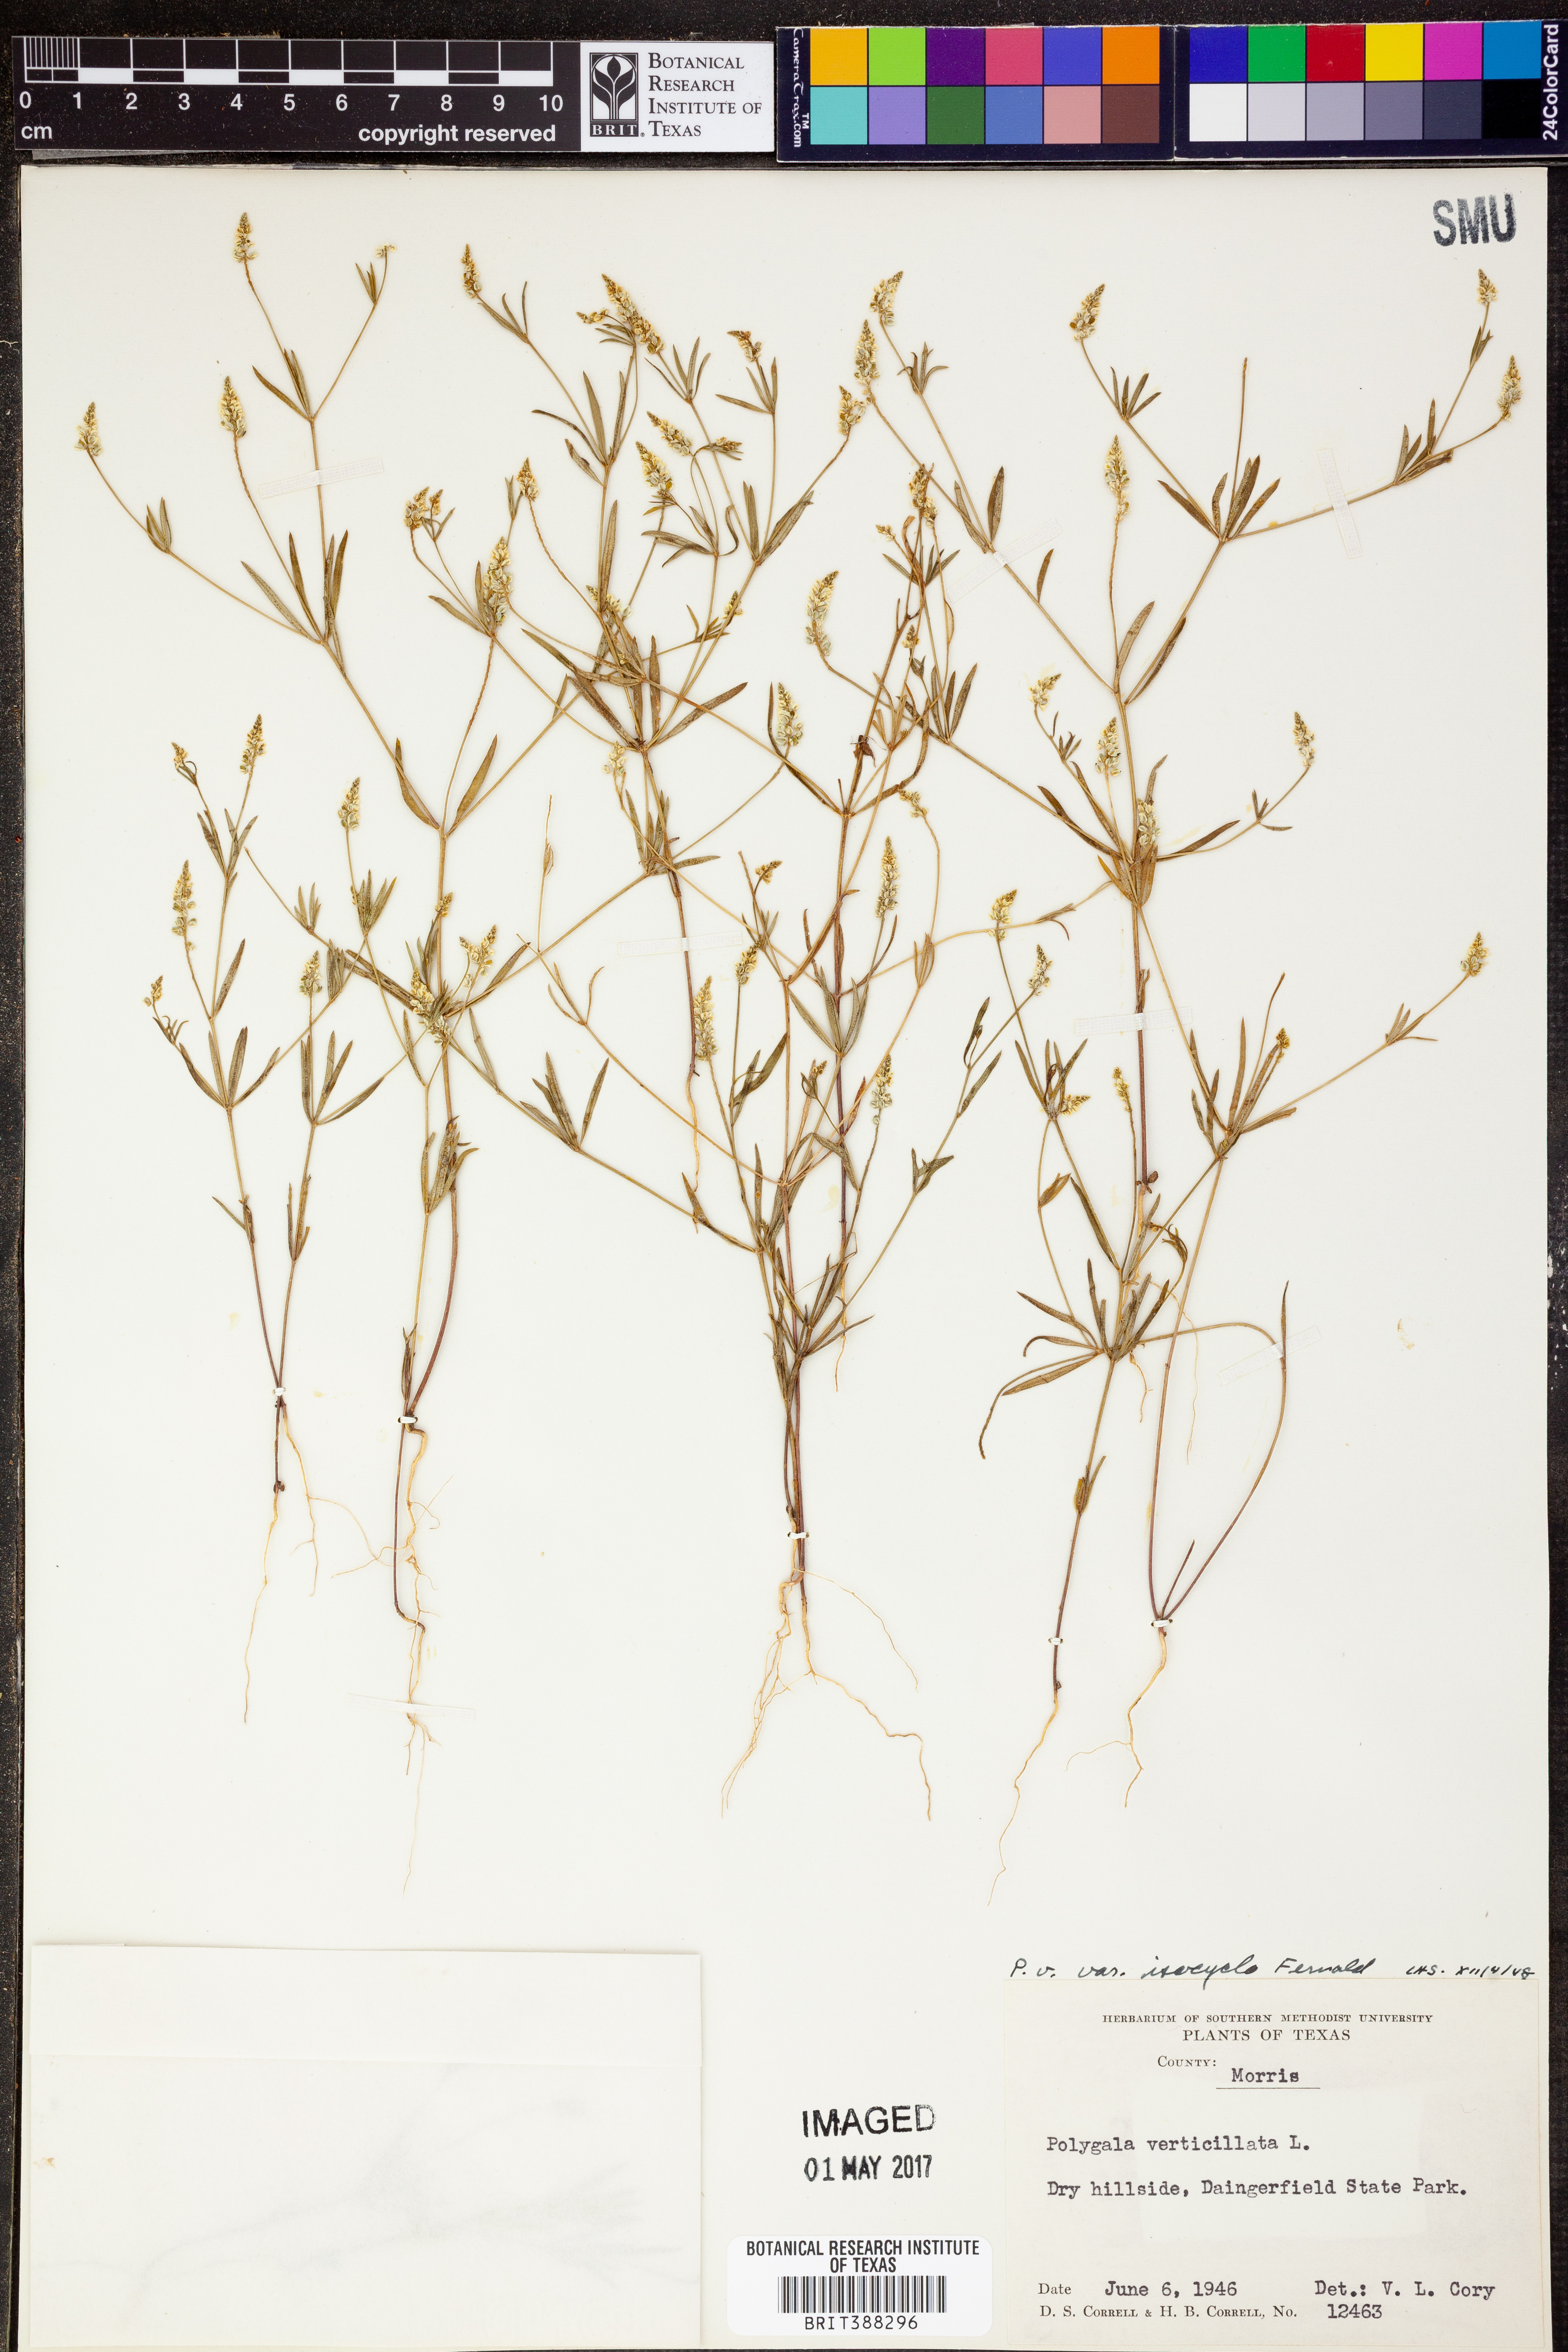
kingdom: Plantae
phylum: Tracheophyta
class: Magnoliopsida
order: Fabales
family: Polygalaceae
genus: Polygala
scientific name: Polygala verticillata
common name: Whorl milkwort
